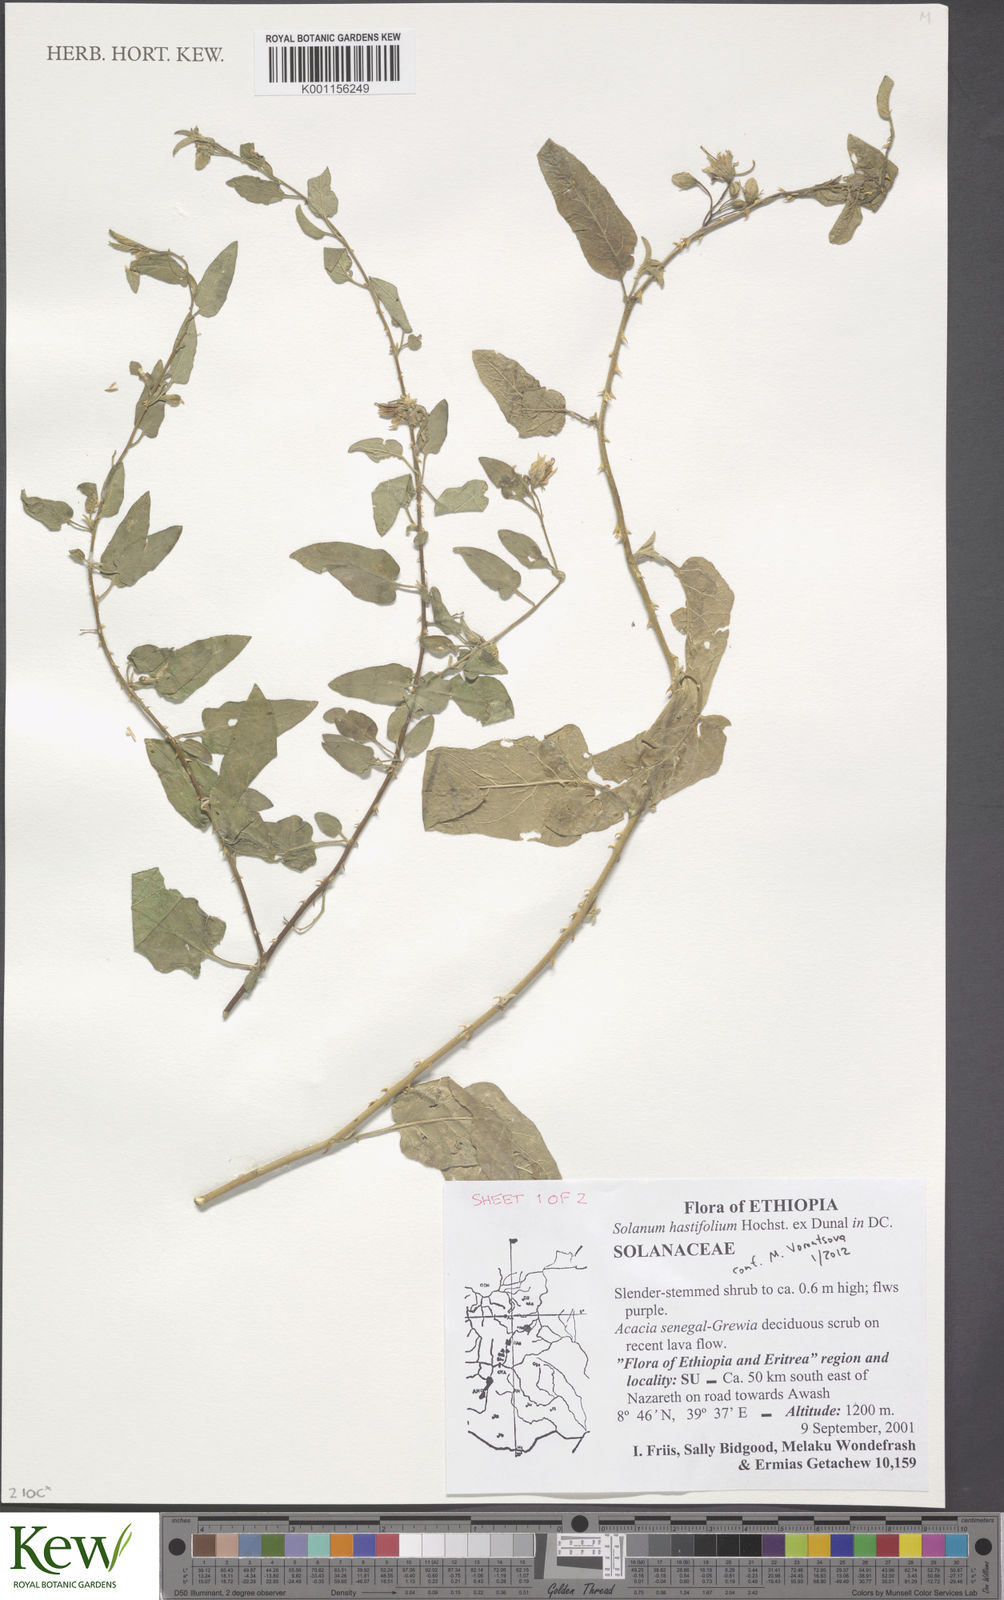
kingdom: Plantae
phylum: Tracheophyta
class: Magnoliopsida
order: Solanales
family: Solanaceae
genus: Solanum
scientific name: Solanum hastifolium
